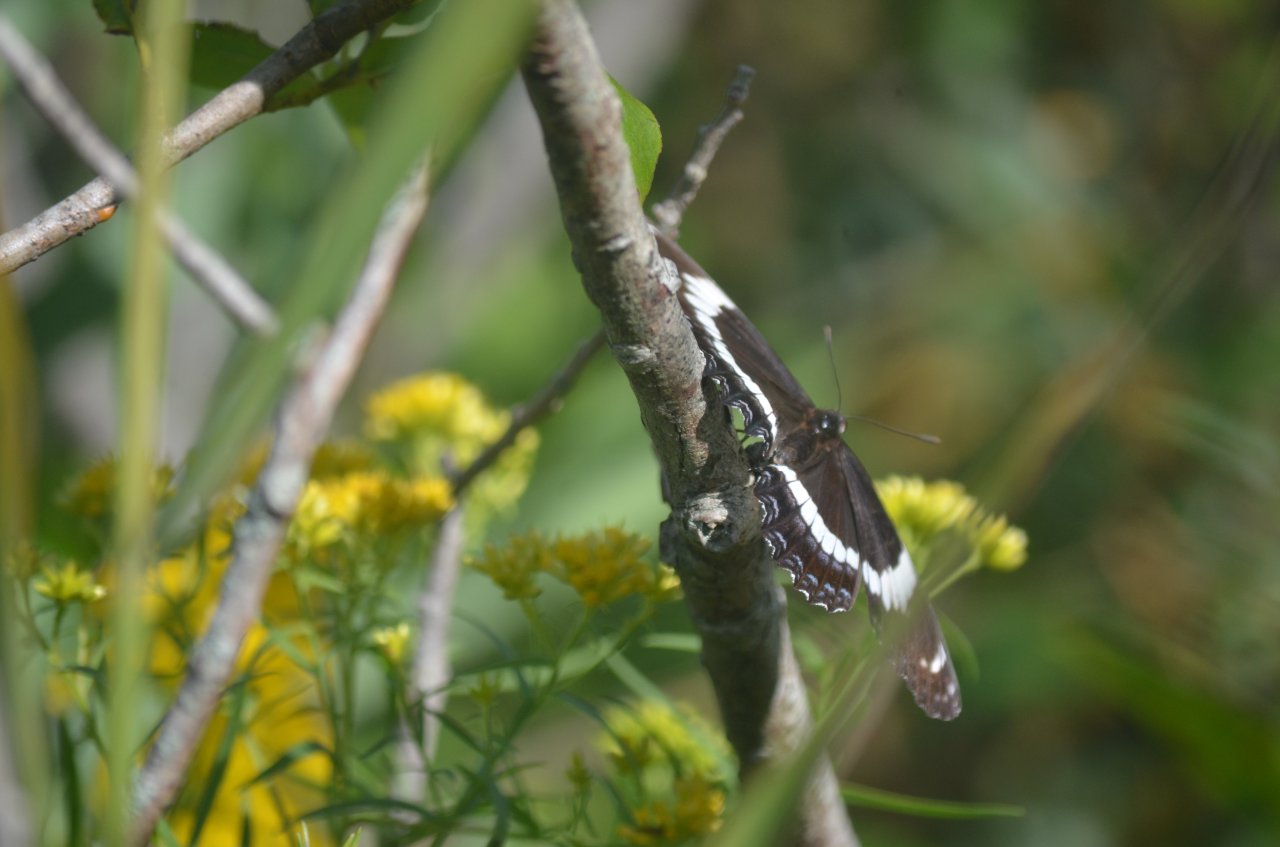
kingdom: Animalia
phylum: Arthropoda
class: Insecta
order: Lepidoptera
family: Nymphalidae
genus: Limenitis
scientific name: Limenitis arthemis
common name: Red-spotted Admiral
